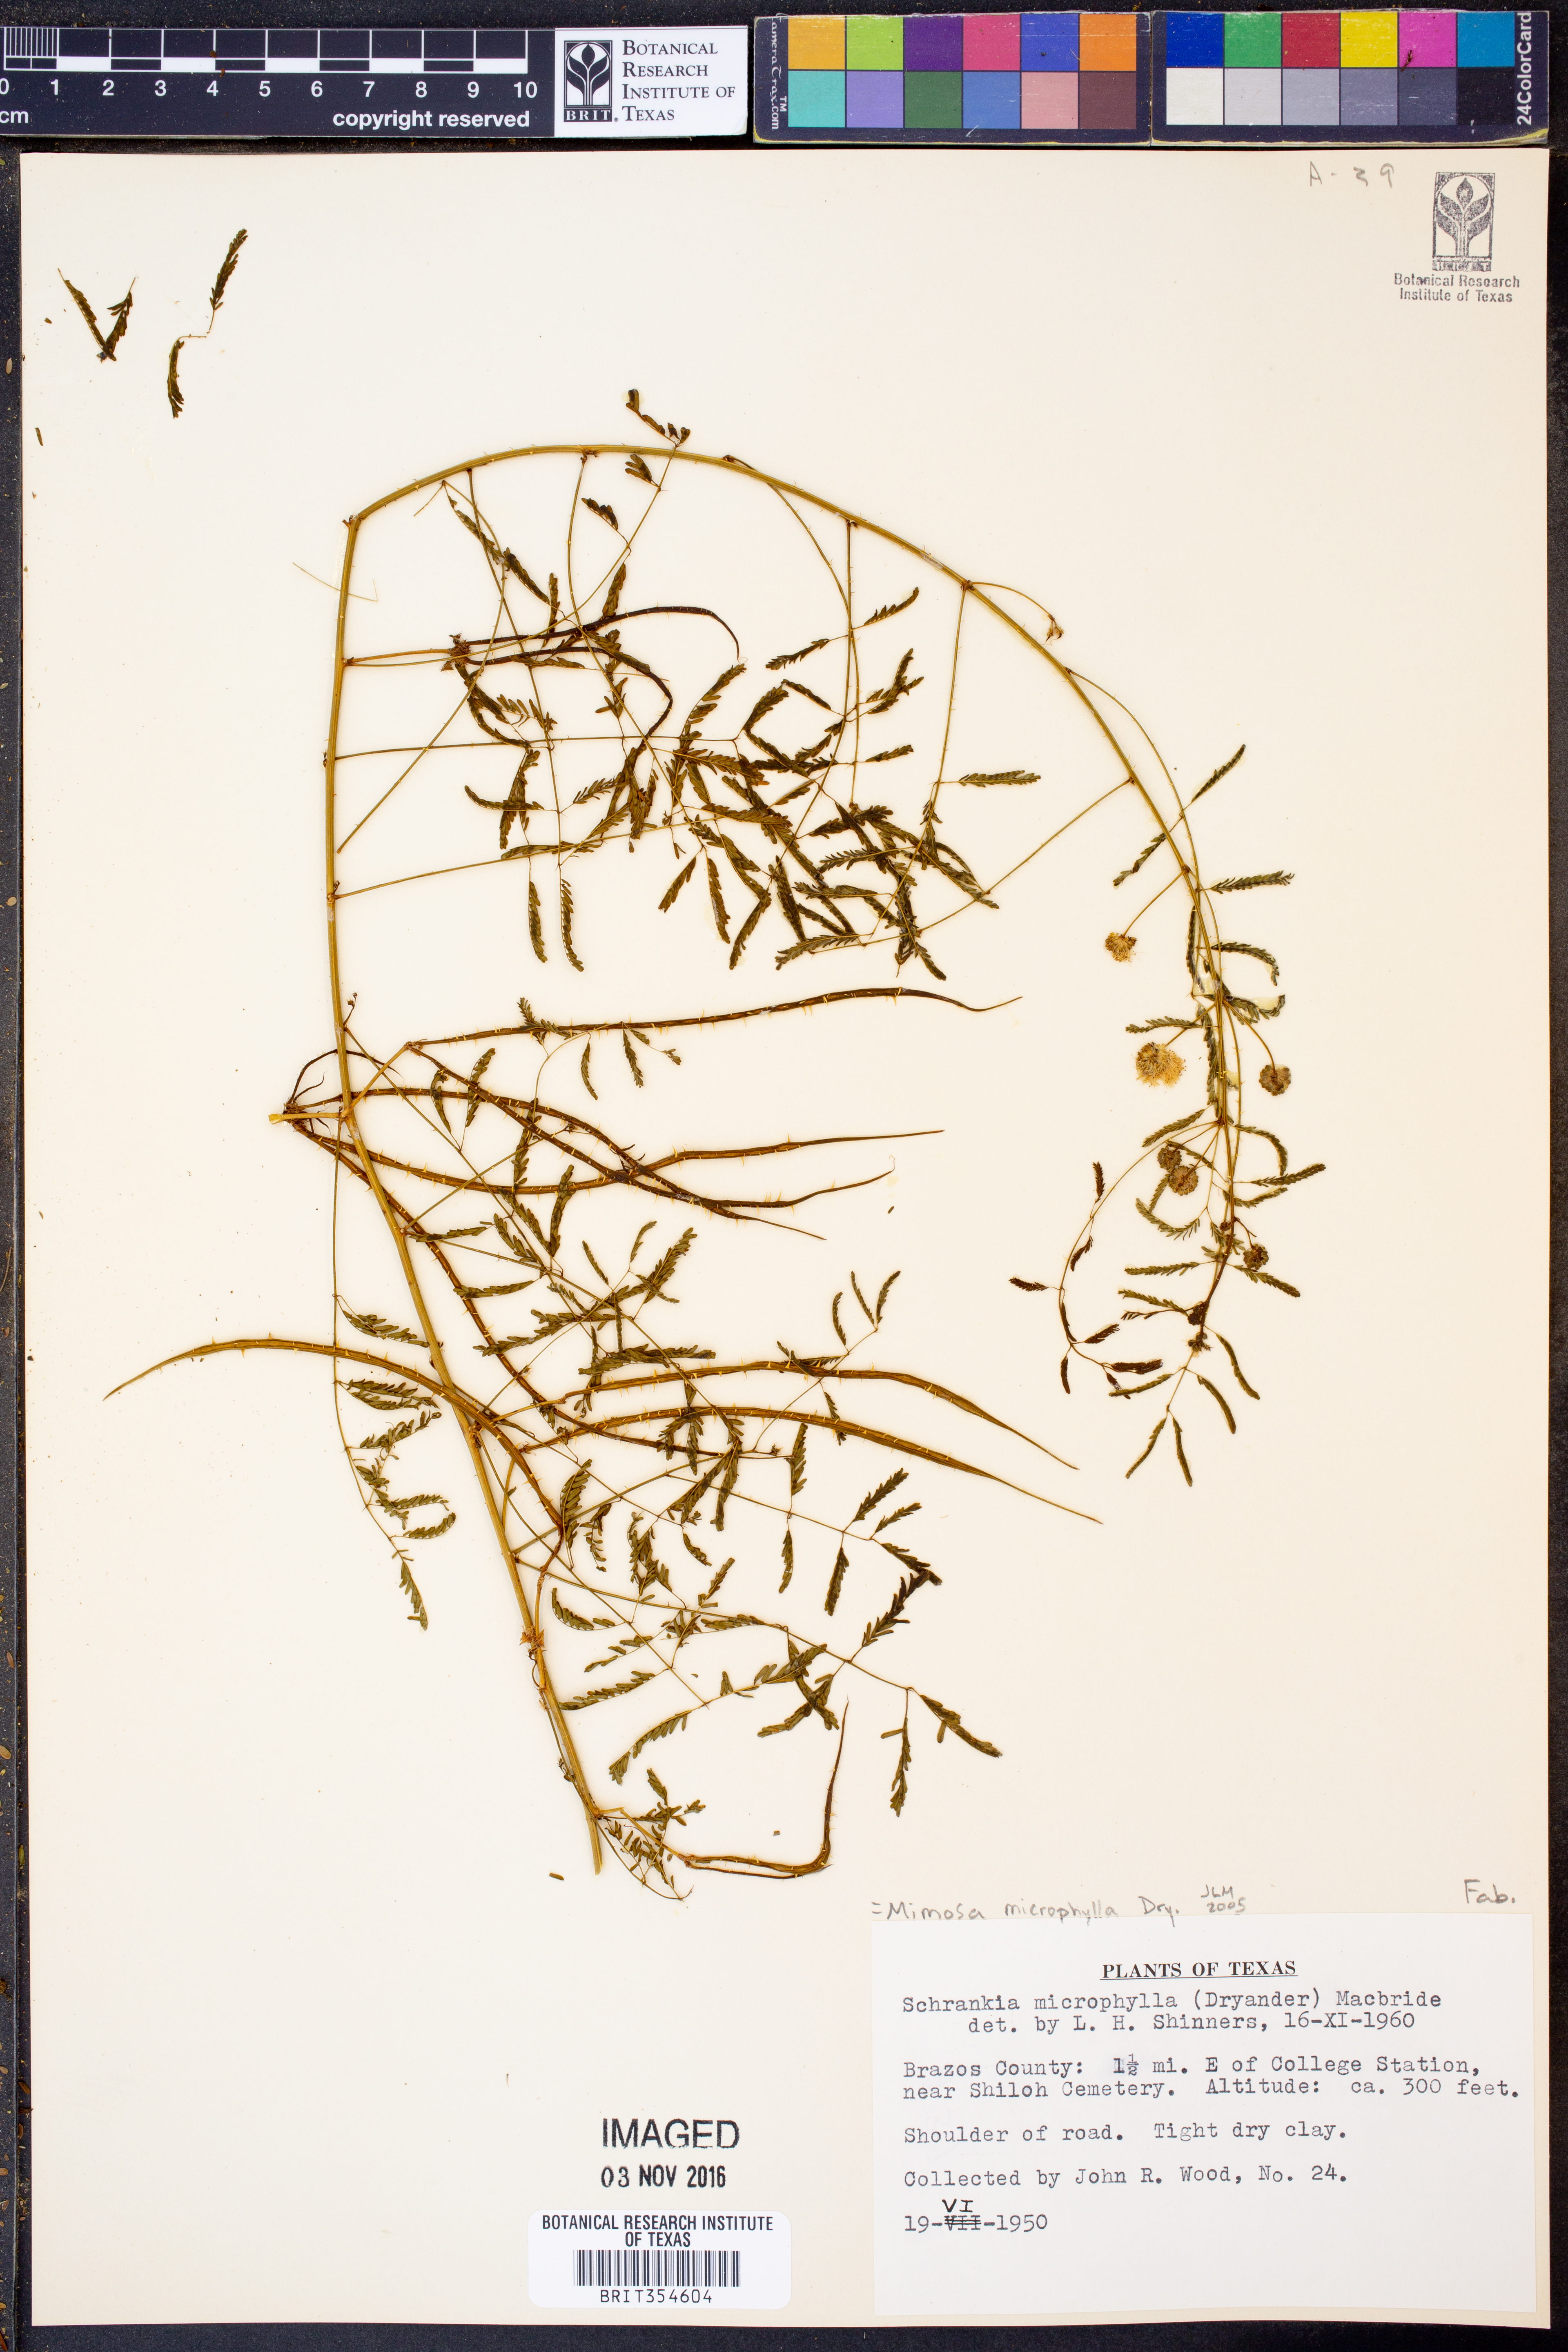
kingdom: Plantae
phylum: Tracheophyta
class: Magnoliopsida
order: Fabales
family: Fabaceae
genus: Mimosa
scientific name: Mimosa quadrivalvis
